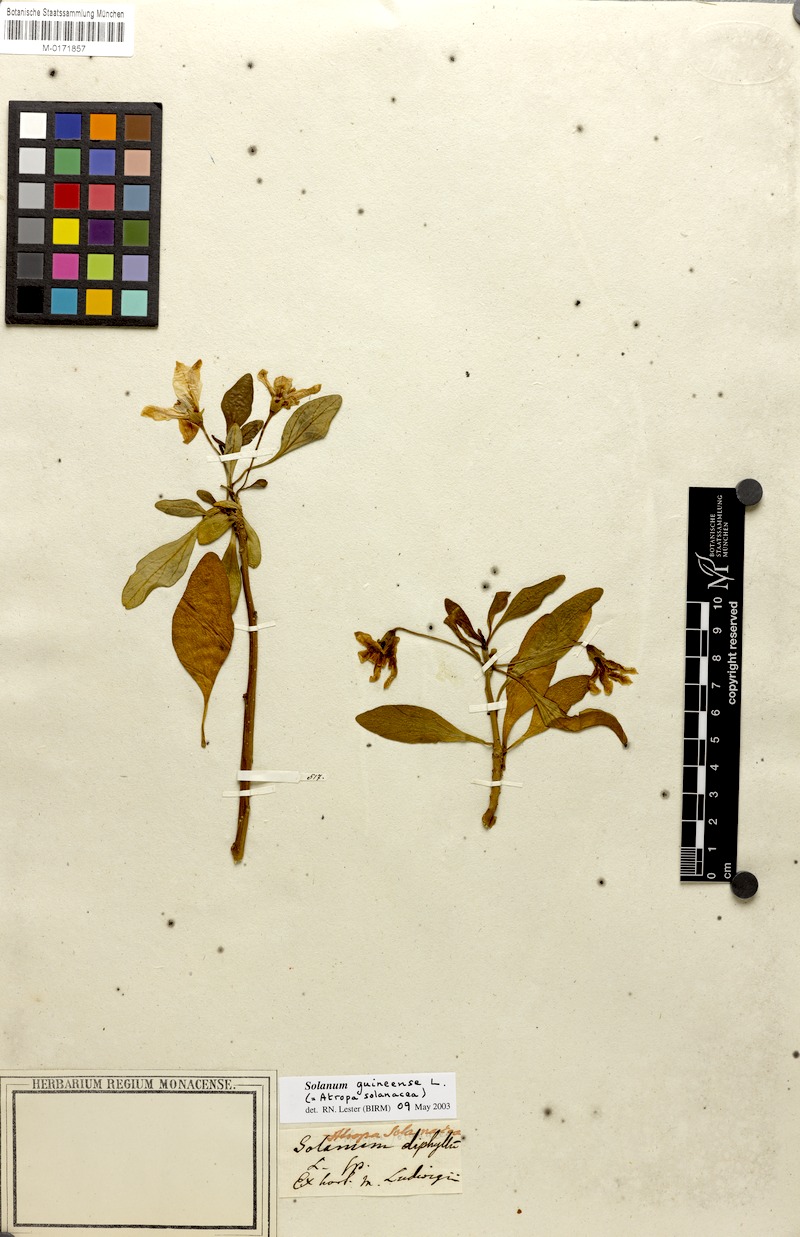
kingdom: Plantae
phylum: Tracheophyta
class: Magnoliopsida
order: Solanales
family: Solanaceae
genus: Solanum
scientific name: Solanum guineense
